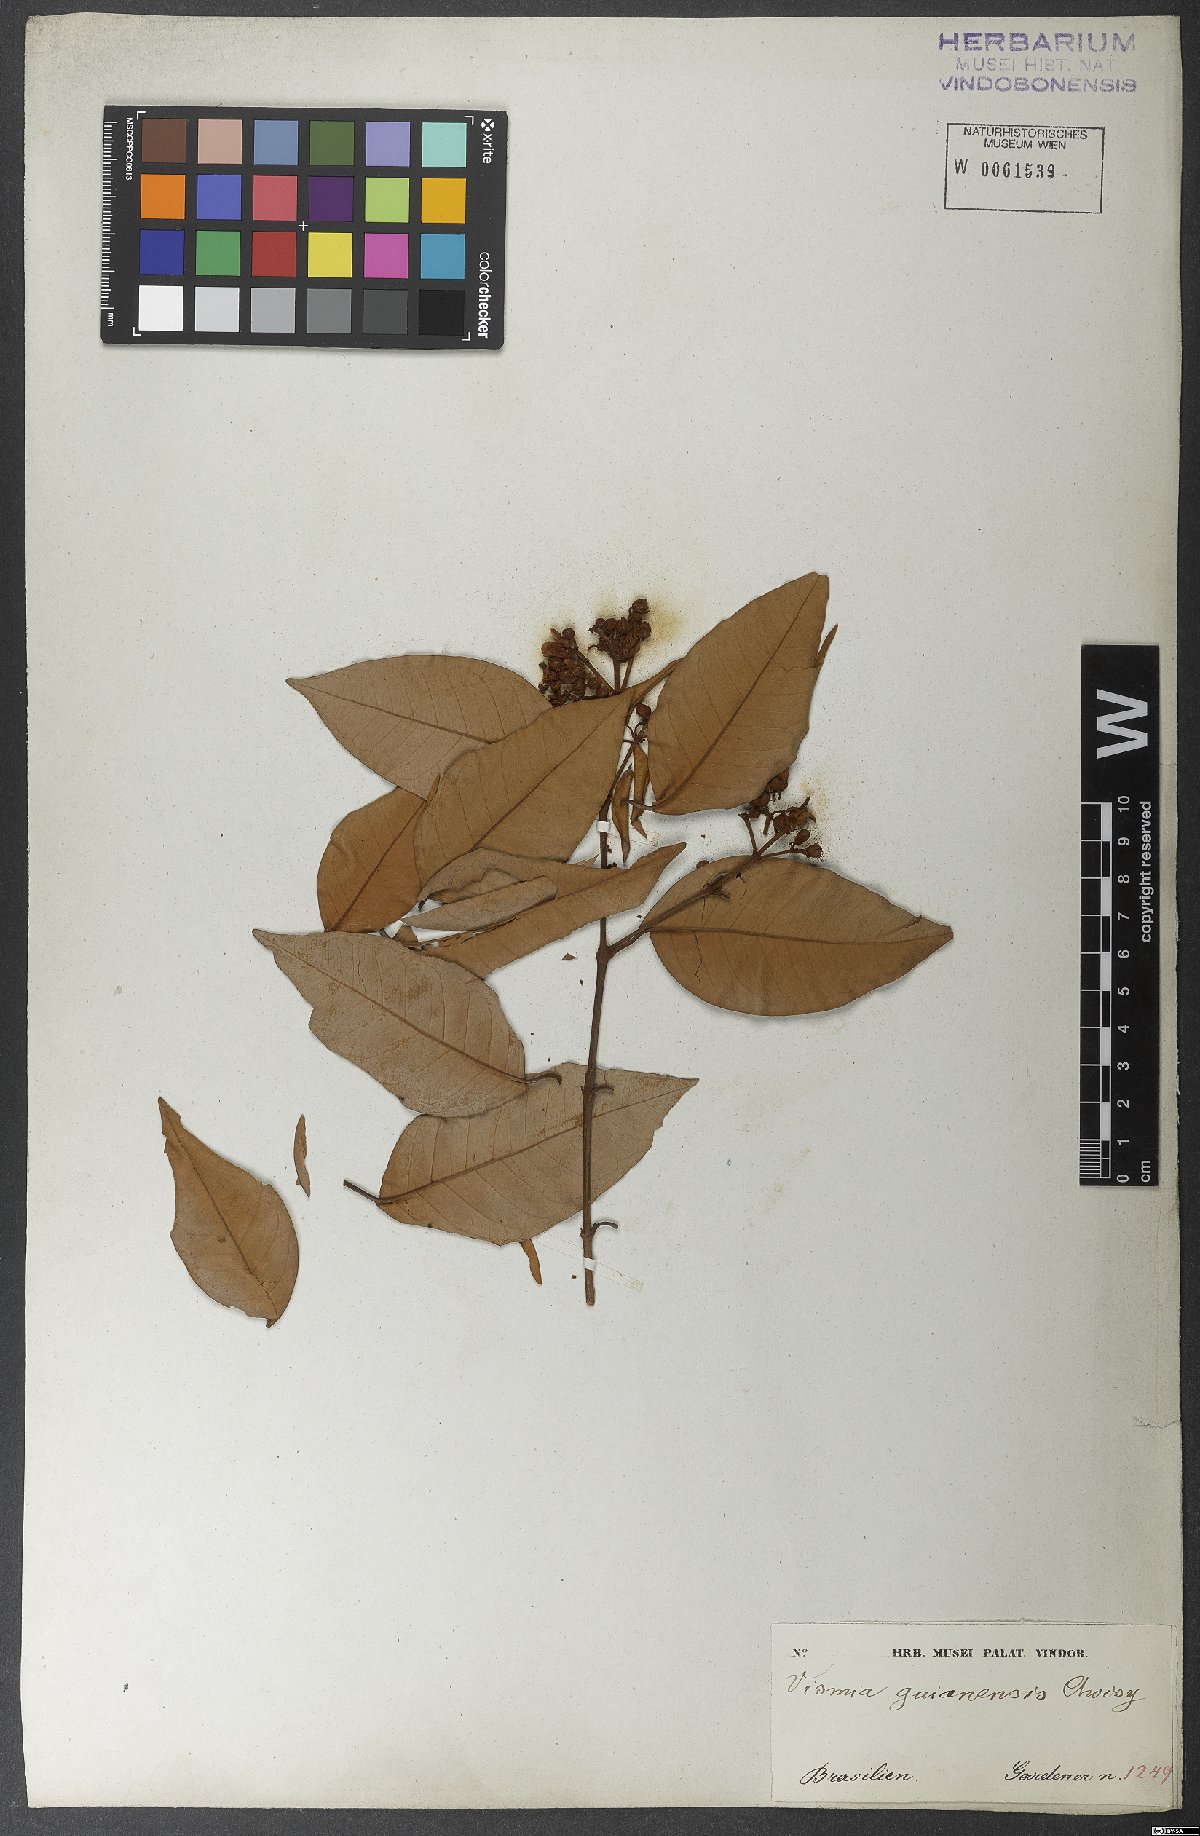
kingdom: Plantae
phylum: Tracheophyta
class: Magnoliopsida
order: Malpighiales
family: Hypericaceae
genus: Vismia
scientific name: Vismia guianensis
